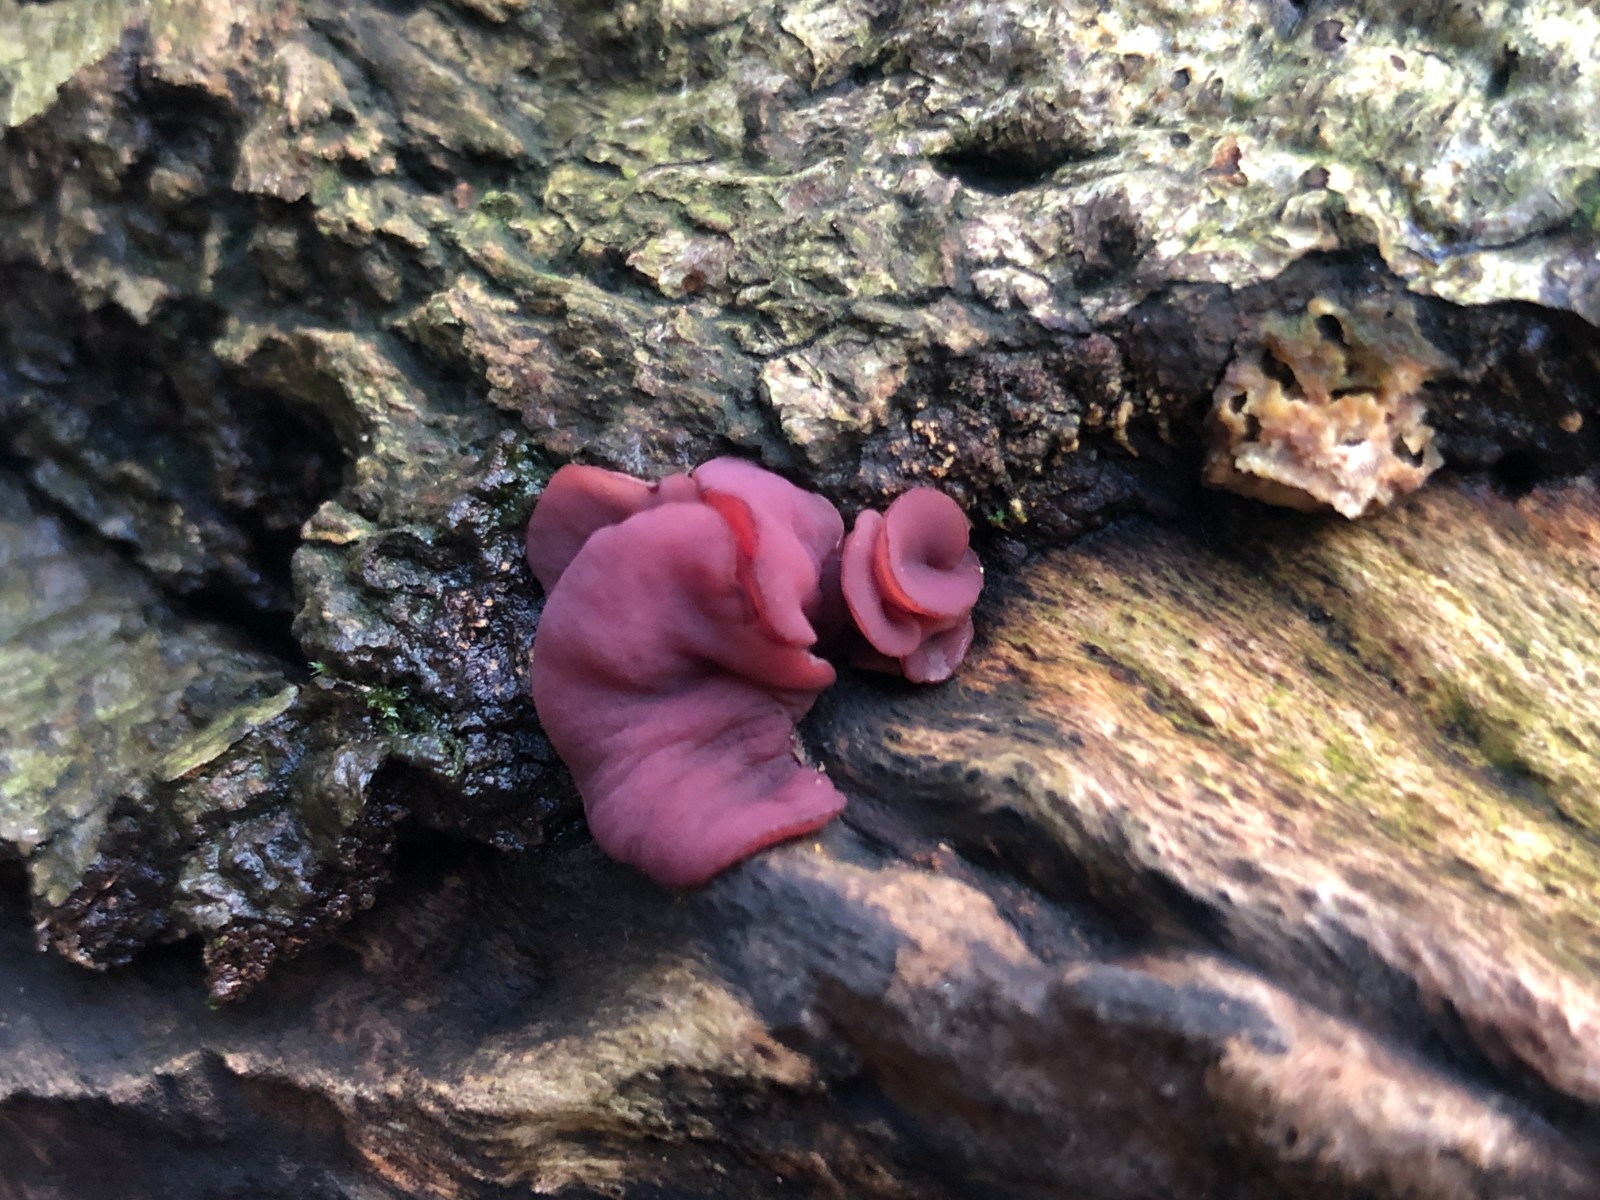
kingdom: Fungi
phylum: Ascomycota
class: Leotiomycetes
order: Helotiales
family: Gelatinodiscaceae
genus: Ascocoryne
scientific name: Ascocoryne cylichnium
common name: stor sejskive
